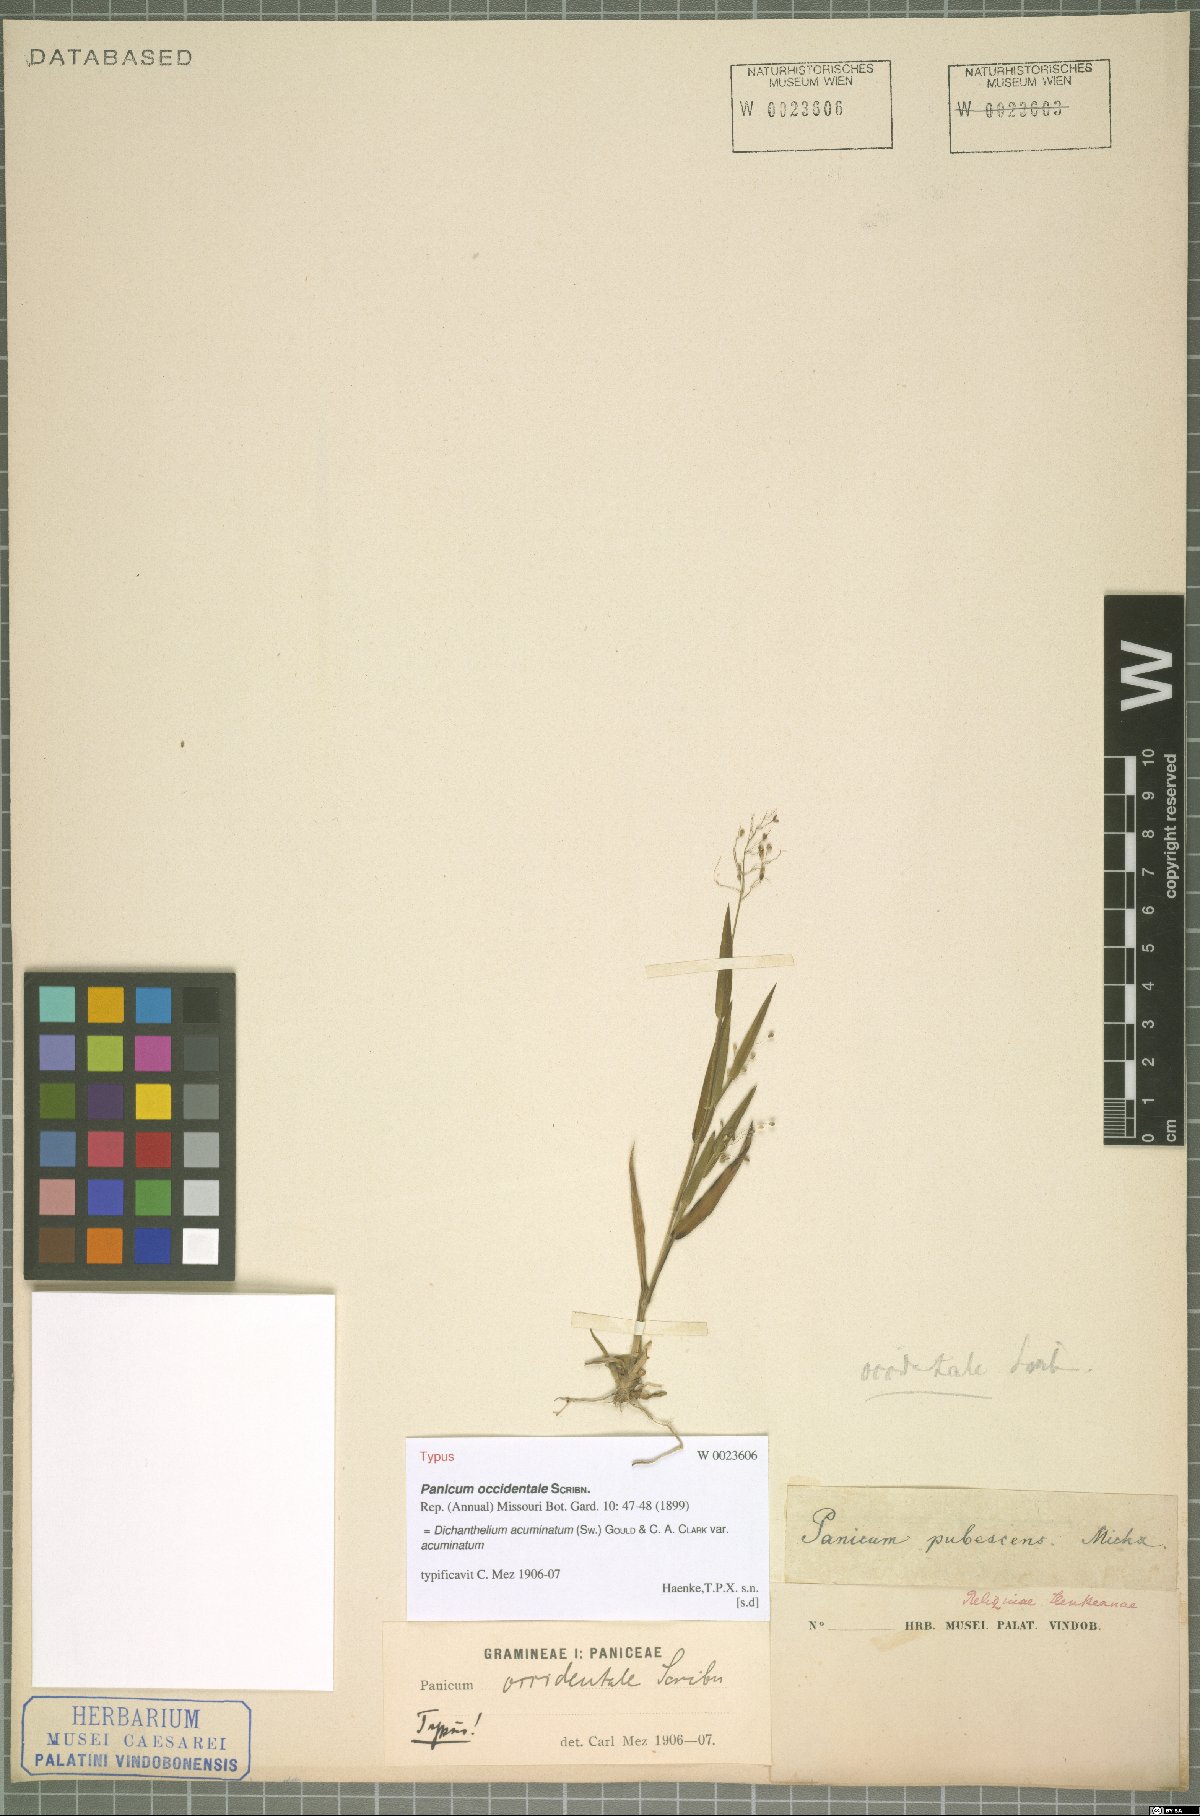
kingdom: Plantae
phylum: Tracheophyta
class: Liliopsida
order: Poales
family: Poaceae
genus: Dichanthelium
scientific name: Dichanthelium acuminatum
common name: Hairy panic grass
